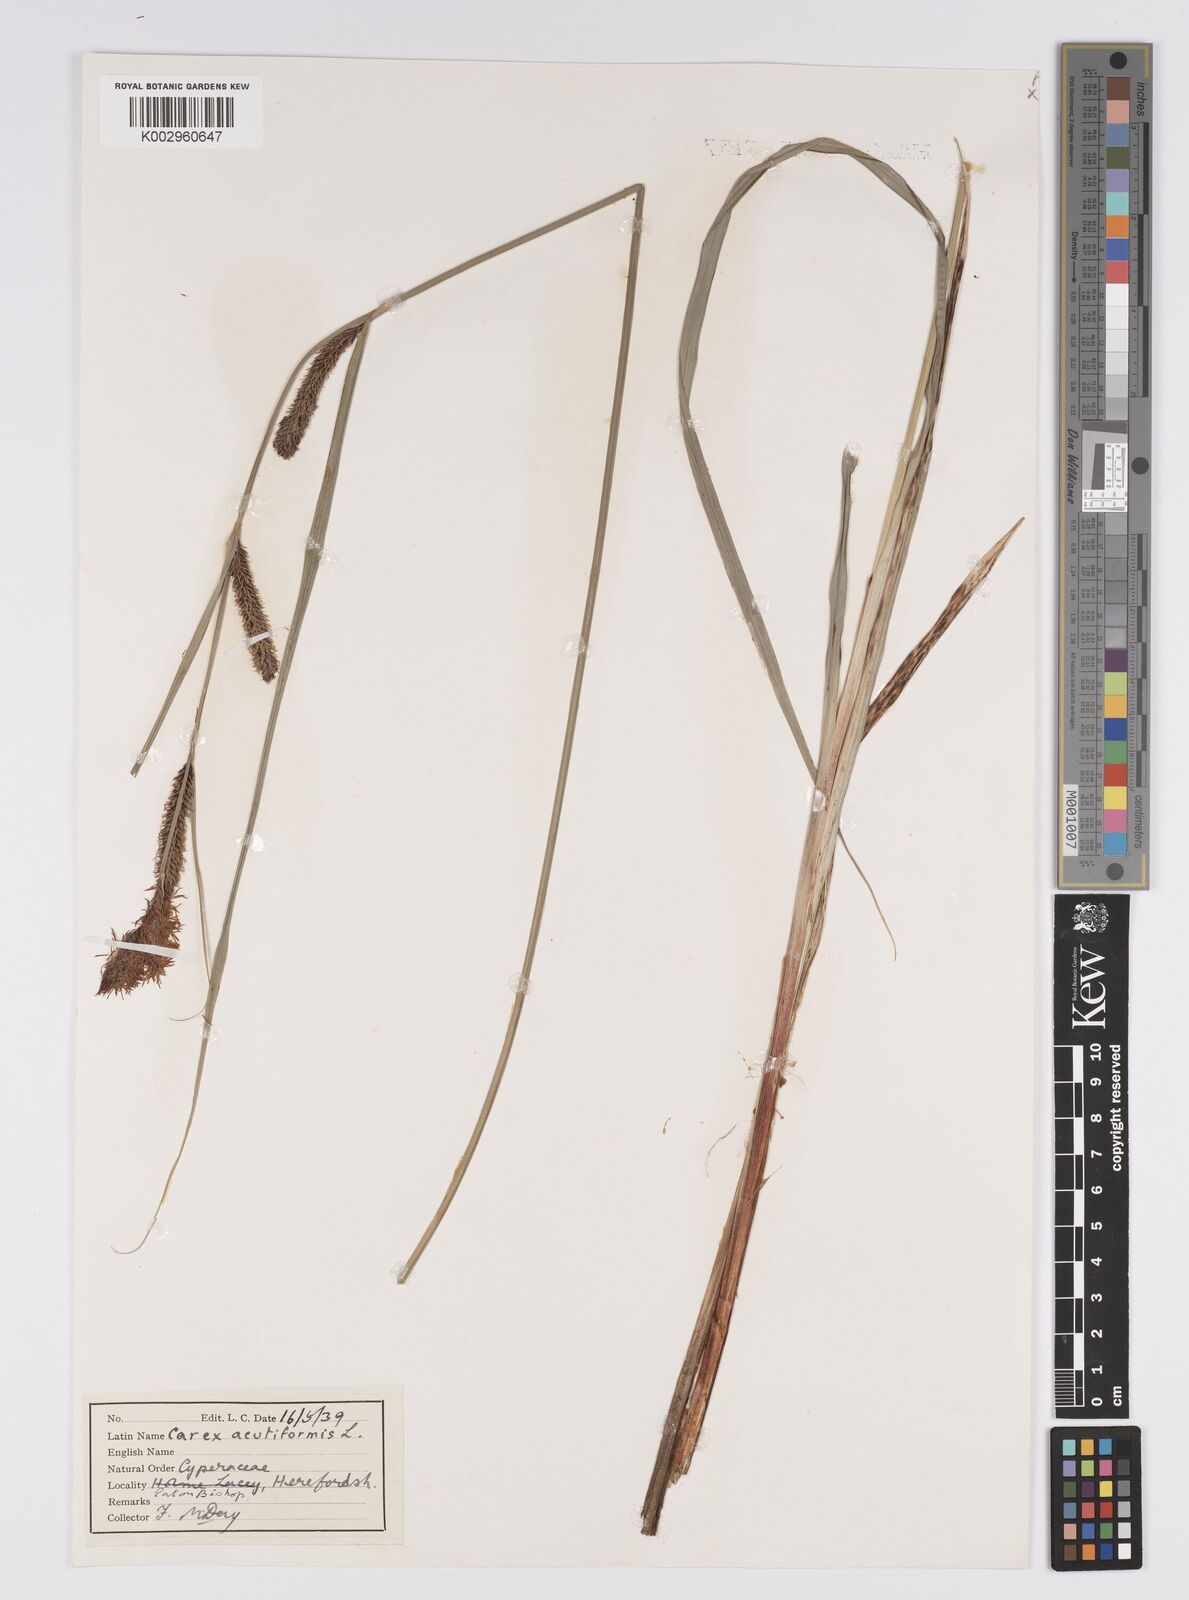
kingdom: Plantae
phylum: Tracheophyta
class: Liliopsida
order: Poales
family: Cyperaceae
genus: Carex
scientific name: Carex
